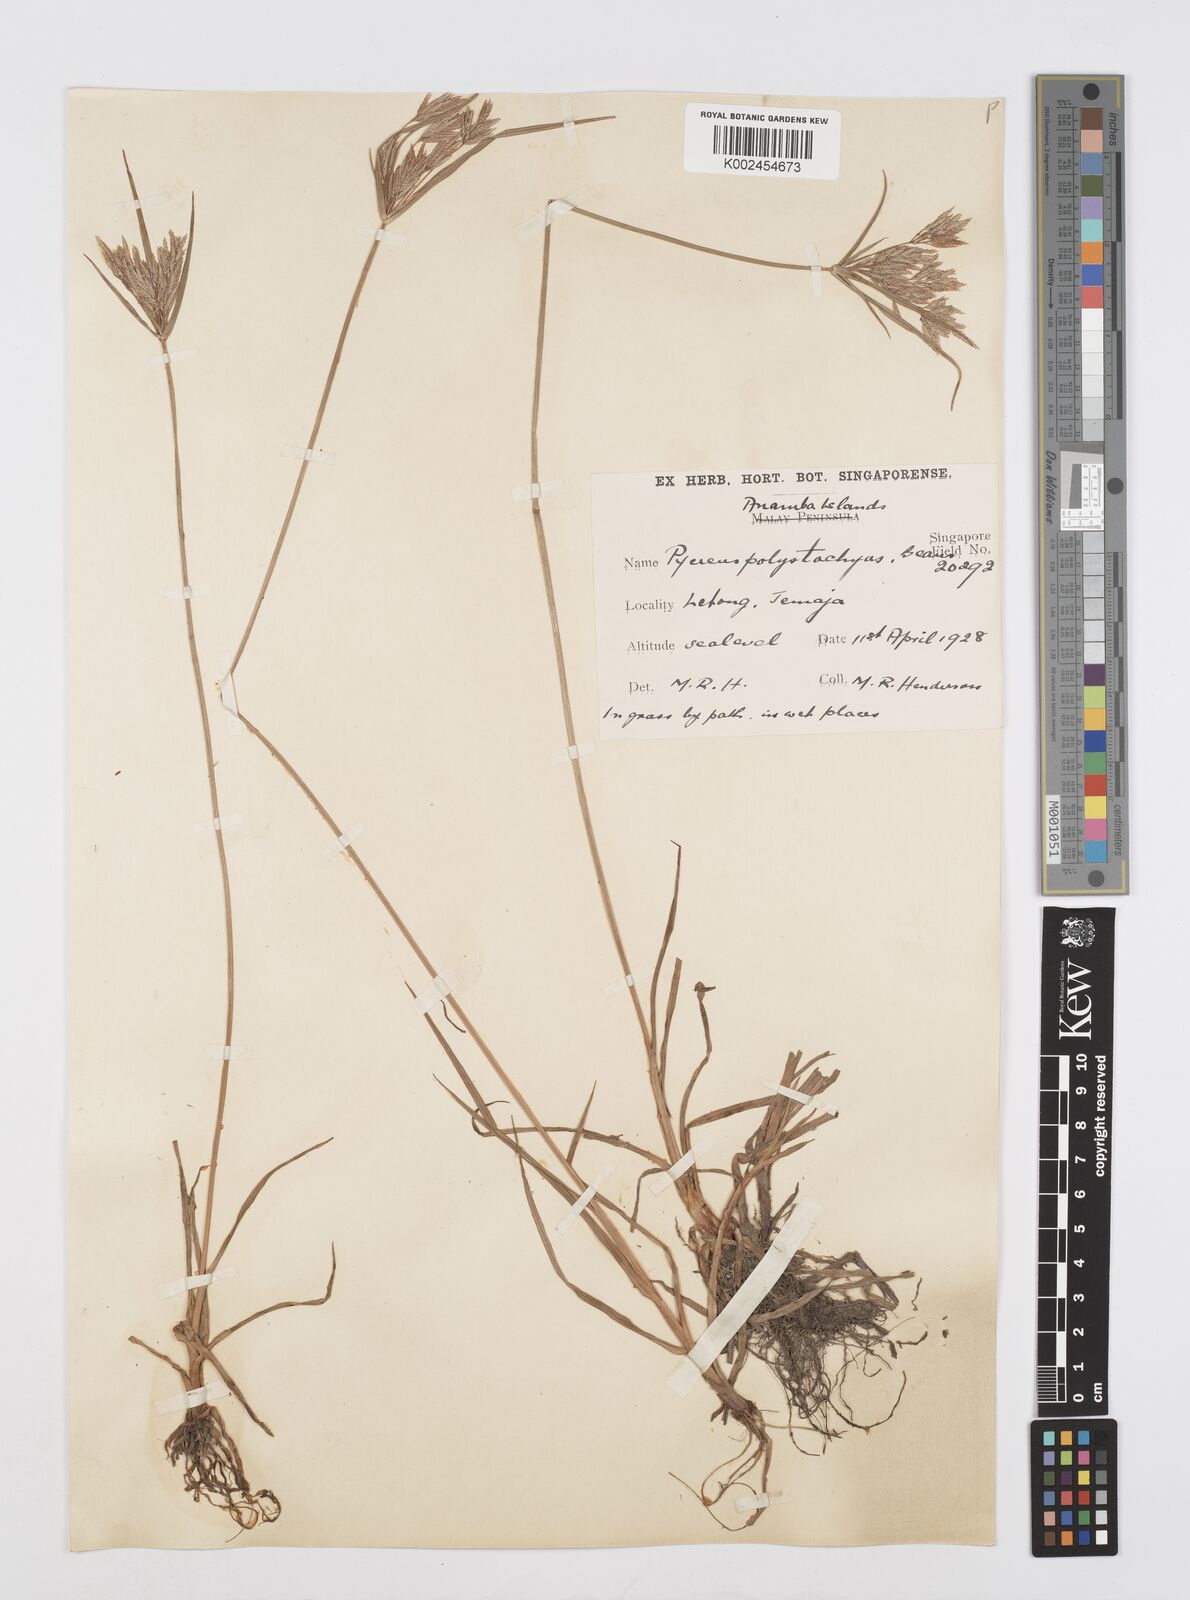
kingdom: Plantae
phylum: Tracheophyta
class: Liliopsida
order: Poales
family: Cyperaceae
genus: Cyperus
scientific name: Cyperus polystachyos
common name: Bunchy flat sedge
